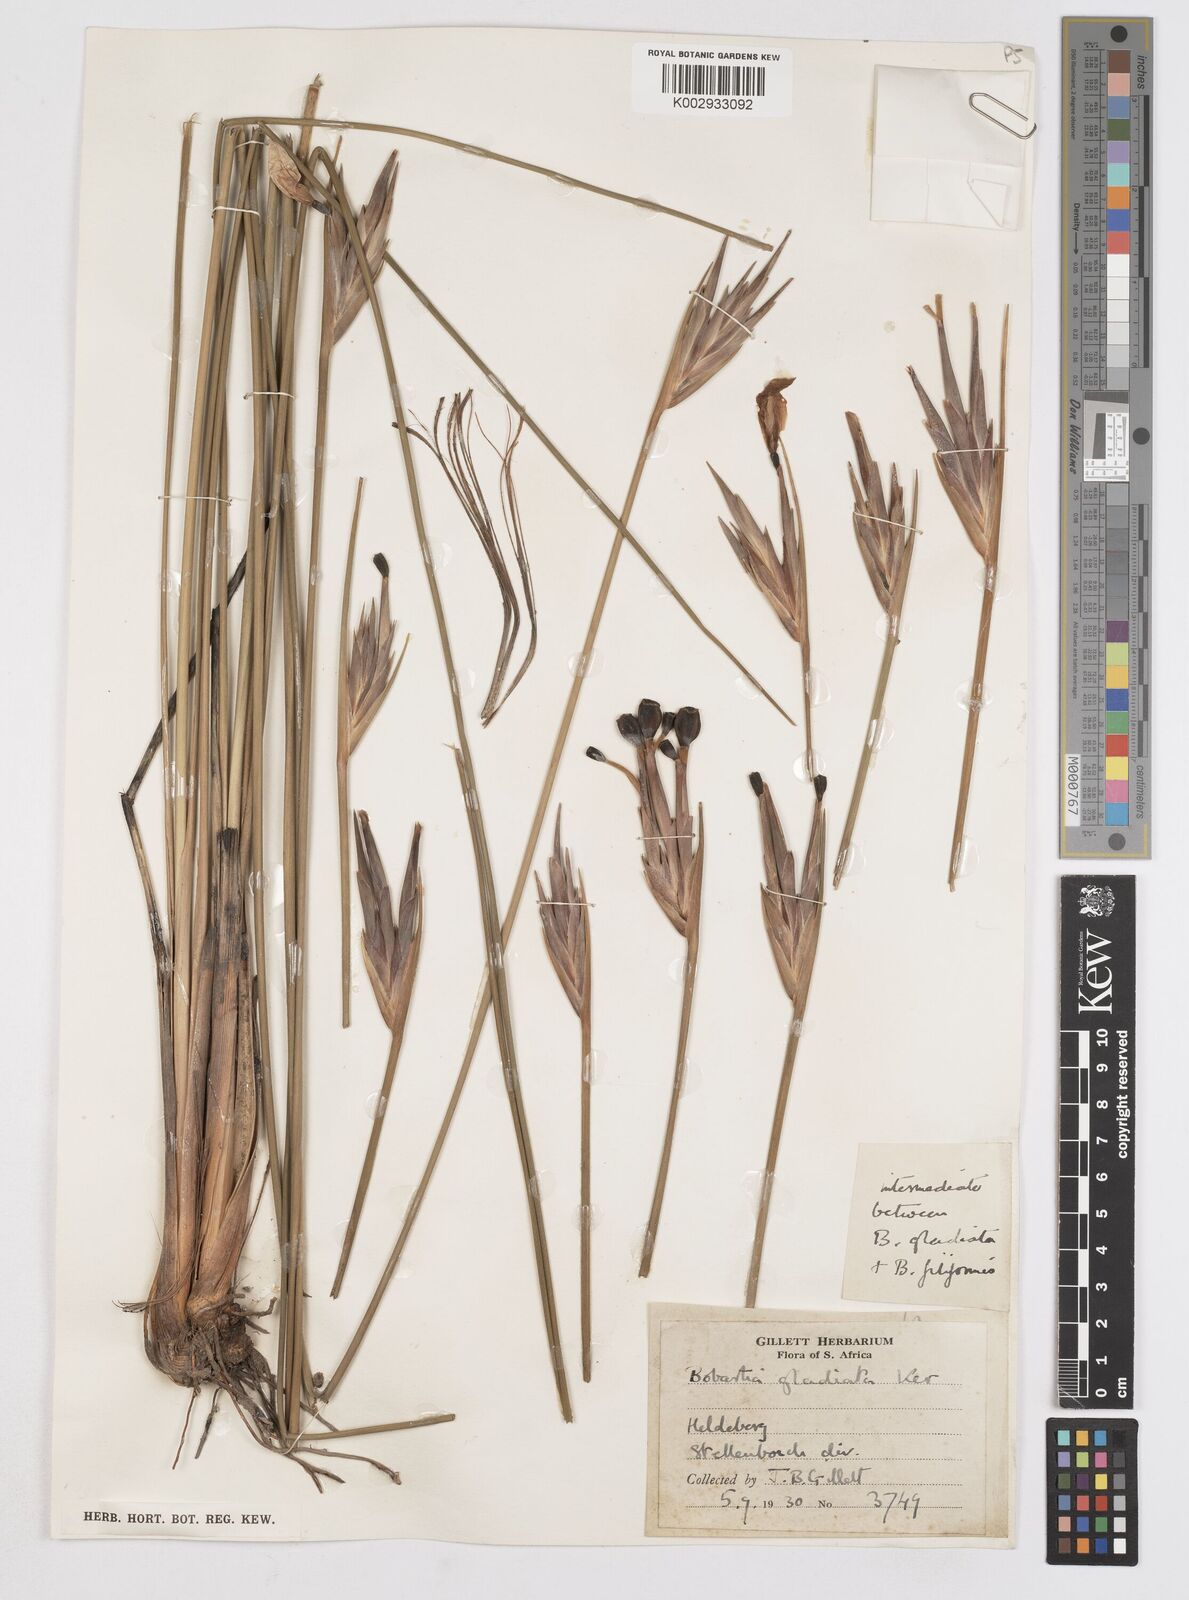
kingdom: Plantae
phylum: Tracheophyta
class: Liliopsida
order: Asparagales
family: Iridaceae
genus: Bobartia
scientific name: Bobartia gladiata
